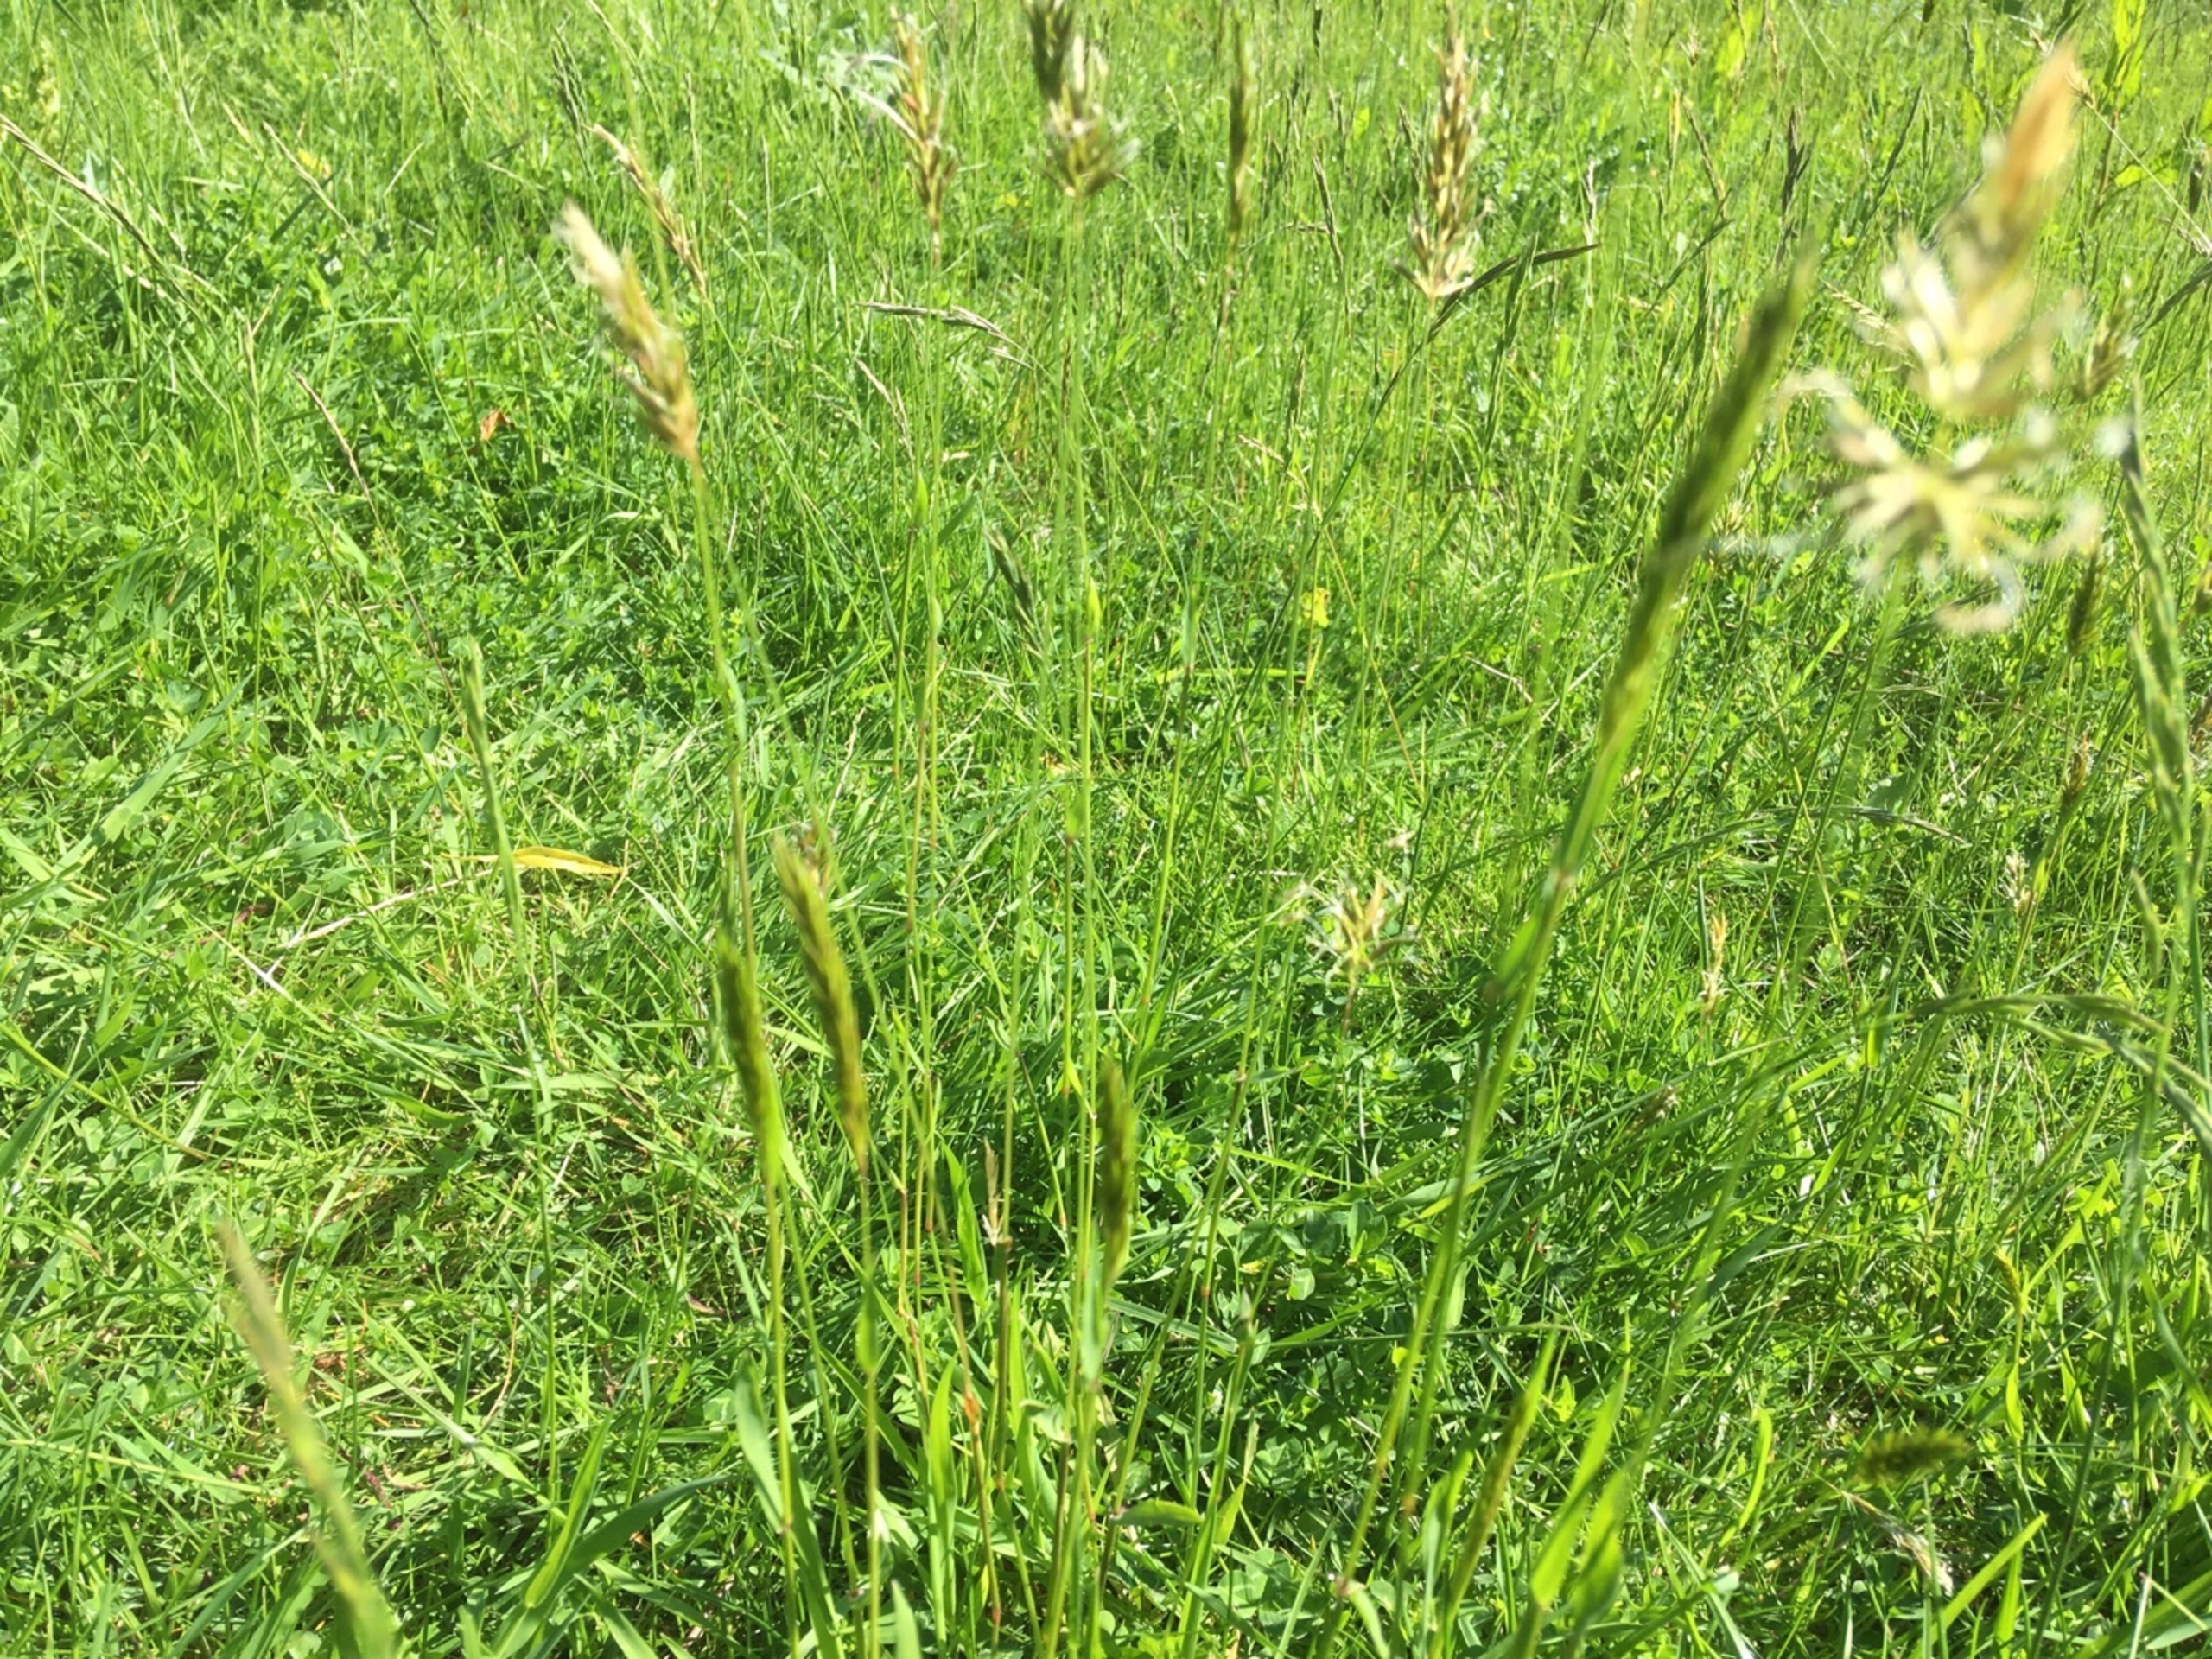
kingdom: Plantae
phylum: Tracheophyta
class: Liliopsida
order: Poales
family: Poaceae
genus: Anthoxanthum
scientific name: Anthoxanthum odoratum
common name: Vellugtende gulaks
